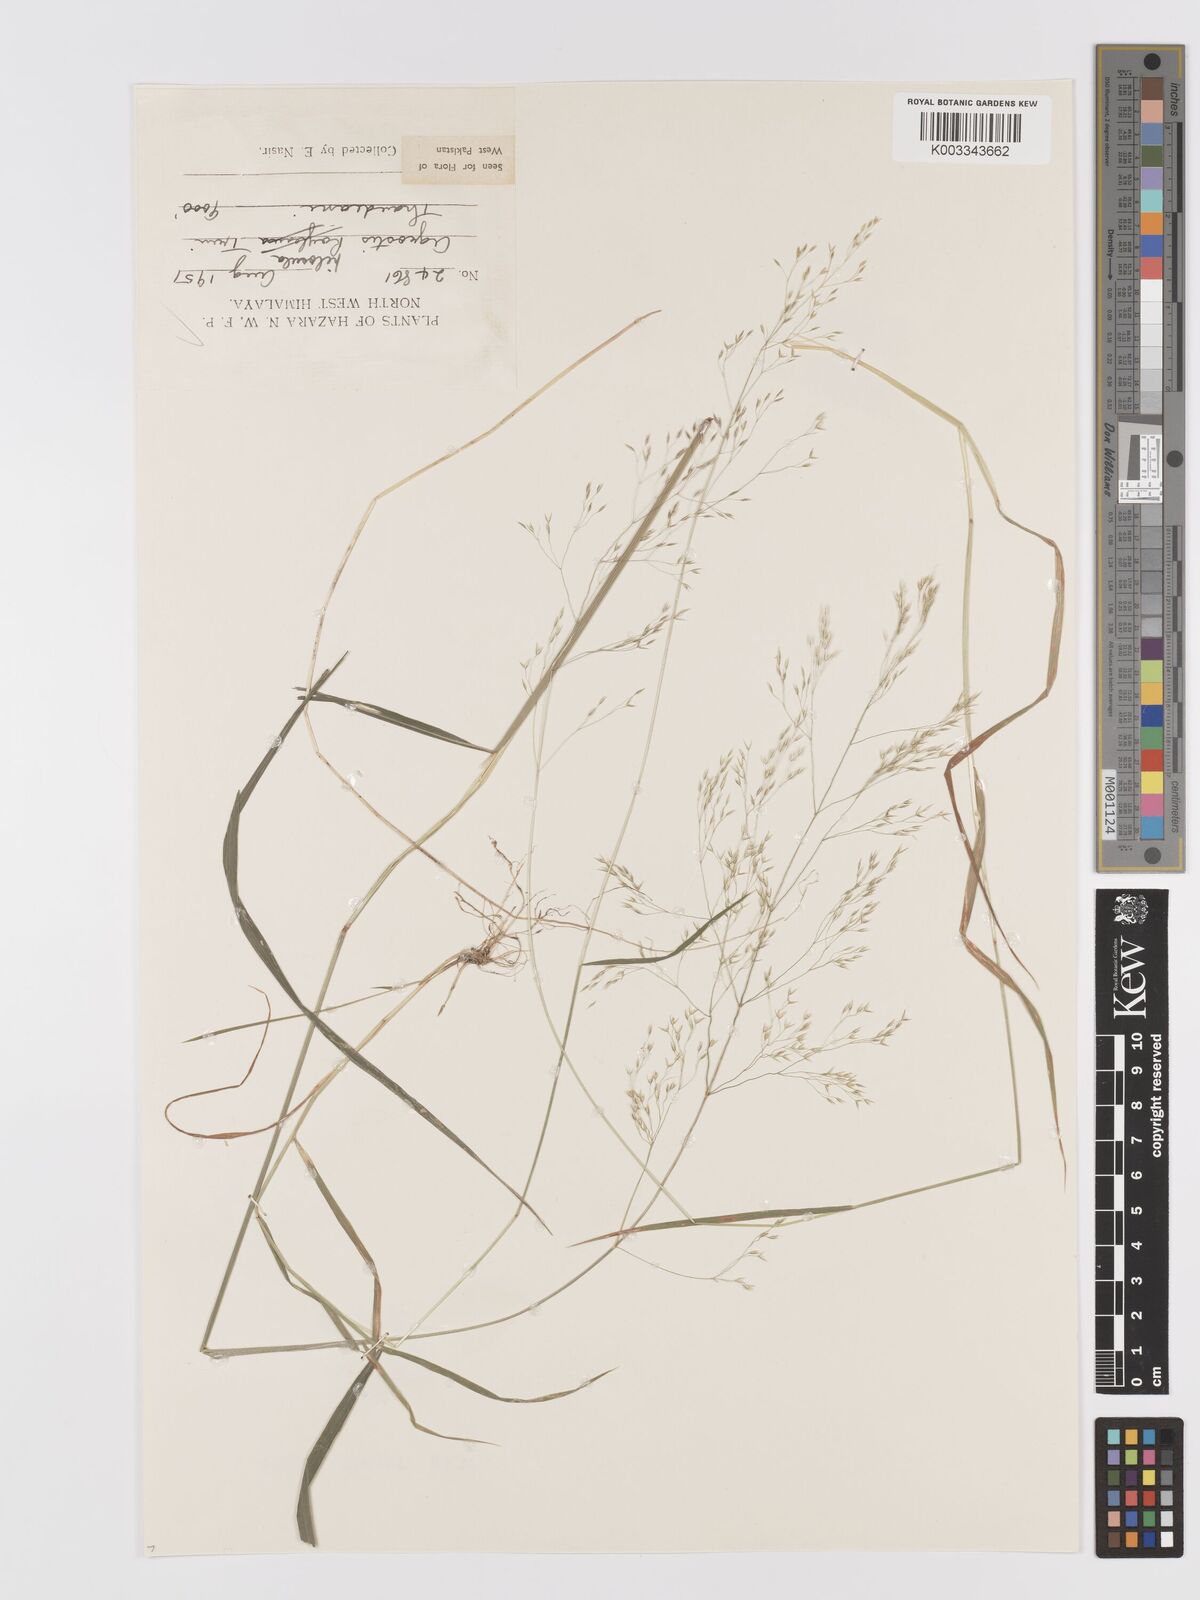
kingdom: Plantae
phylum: Tracheophyta
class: Liliopsida
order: Poales
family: Poaceae
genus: Agrostis
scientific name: Agrostis pilosula
